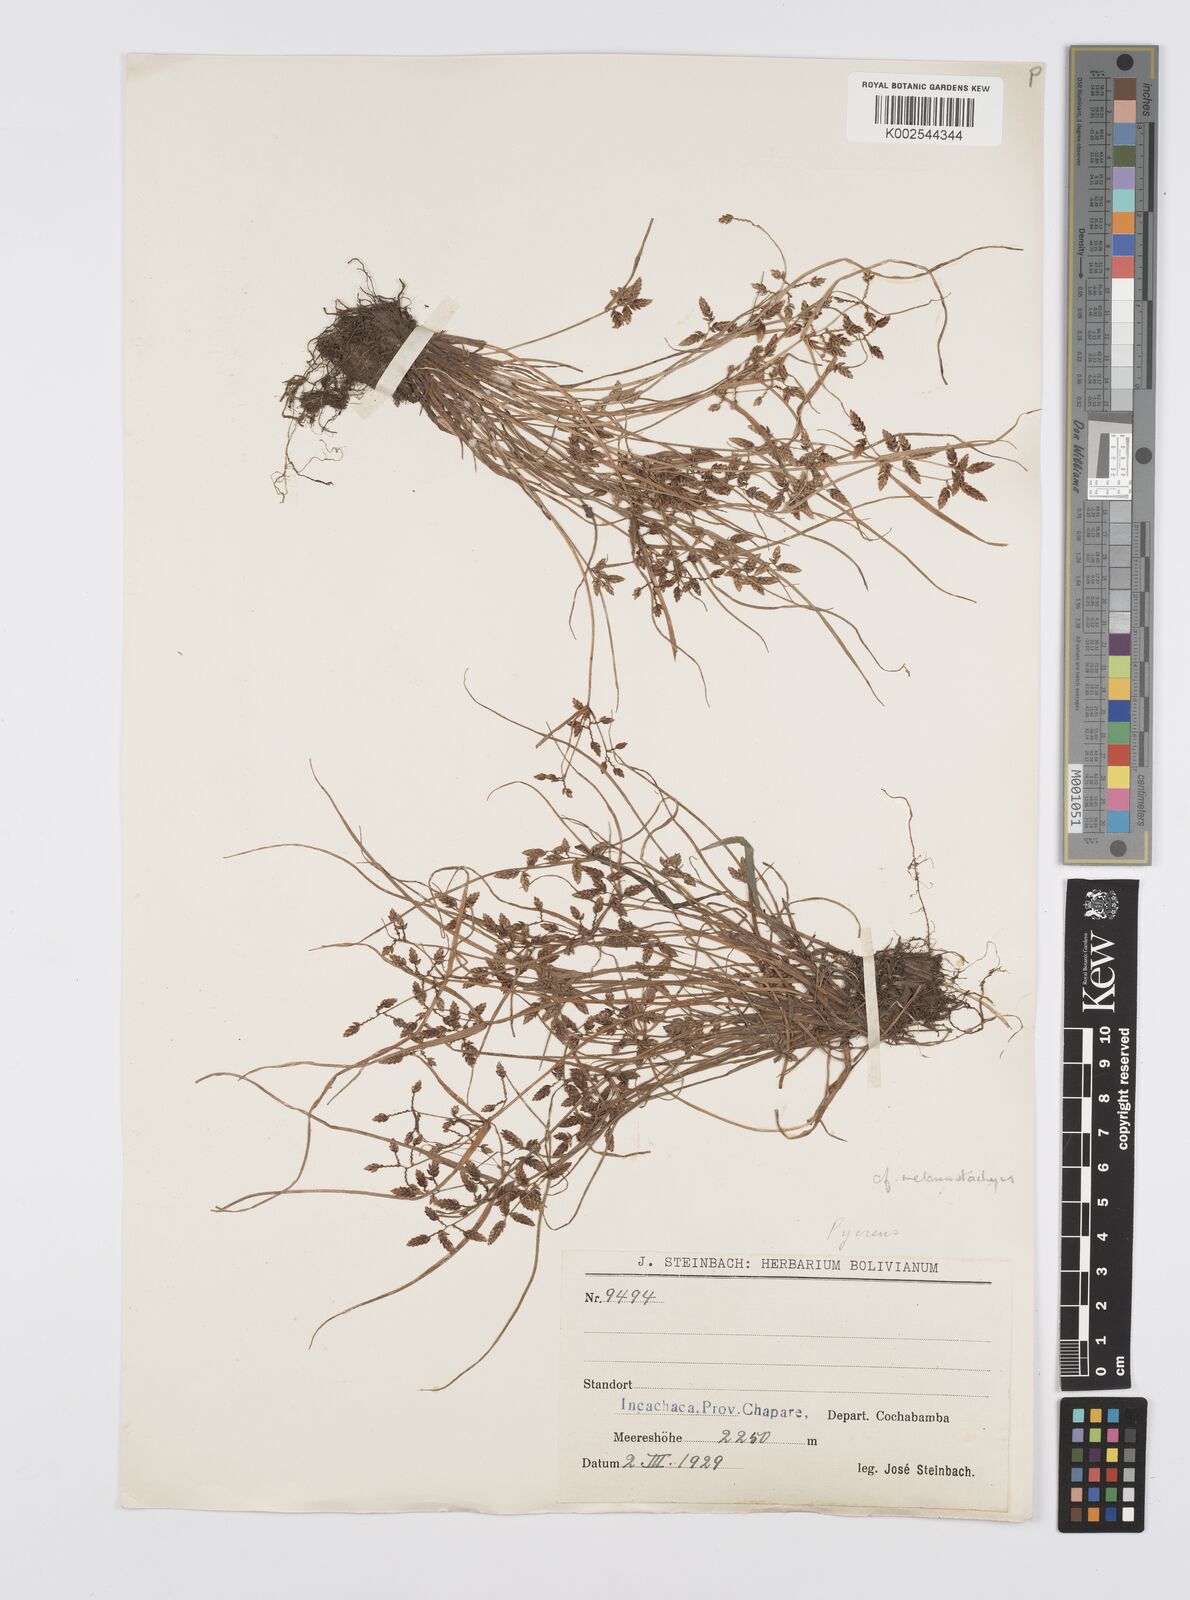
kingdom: Plantae
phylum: Tracheophyta
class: Liliopsida
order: Poales
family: Cyperaceae
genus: Cyperus
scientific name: Cyperus melanostachyus
